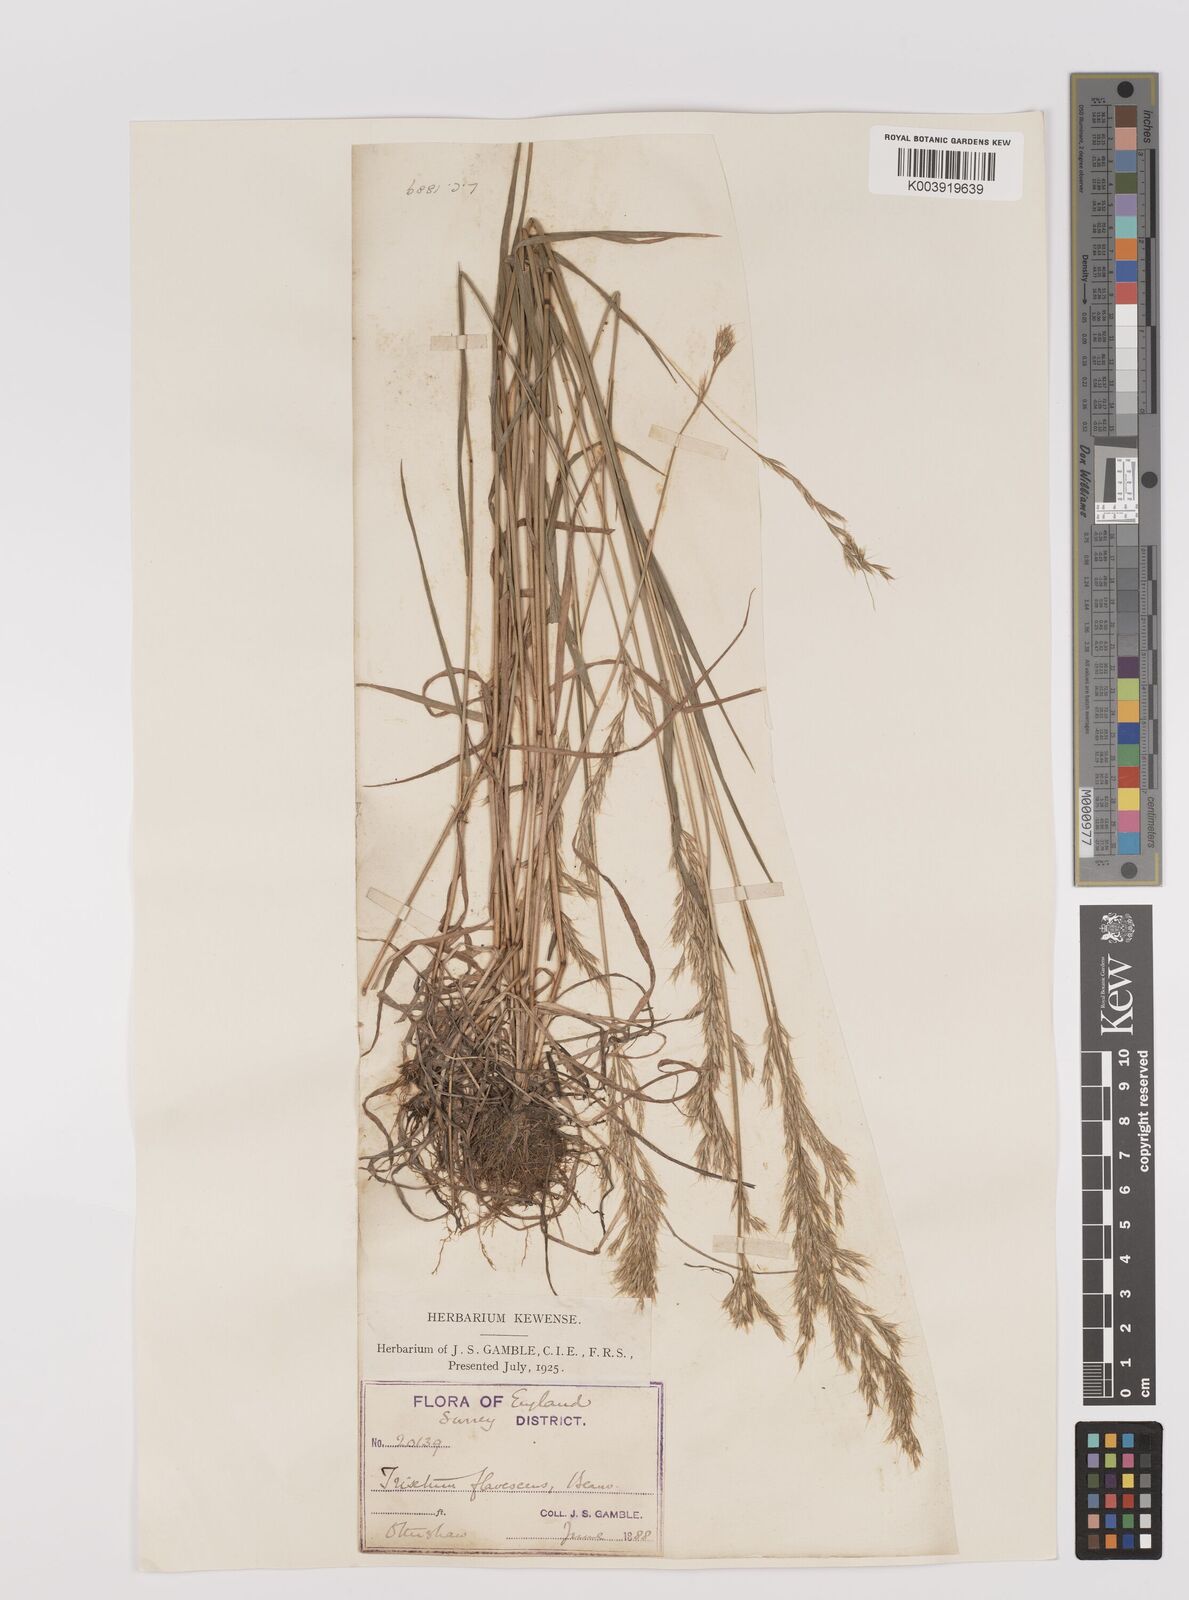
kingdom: Plantae
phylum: Tracheophyta
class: Liliopsida
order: Poales
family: Poaceae
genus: Trisetum
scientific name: Trisetum flavescens
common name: Yellow oat-grass
